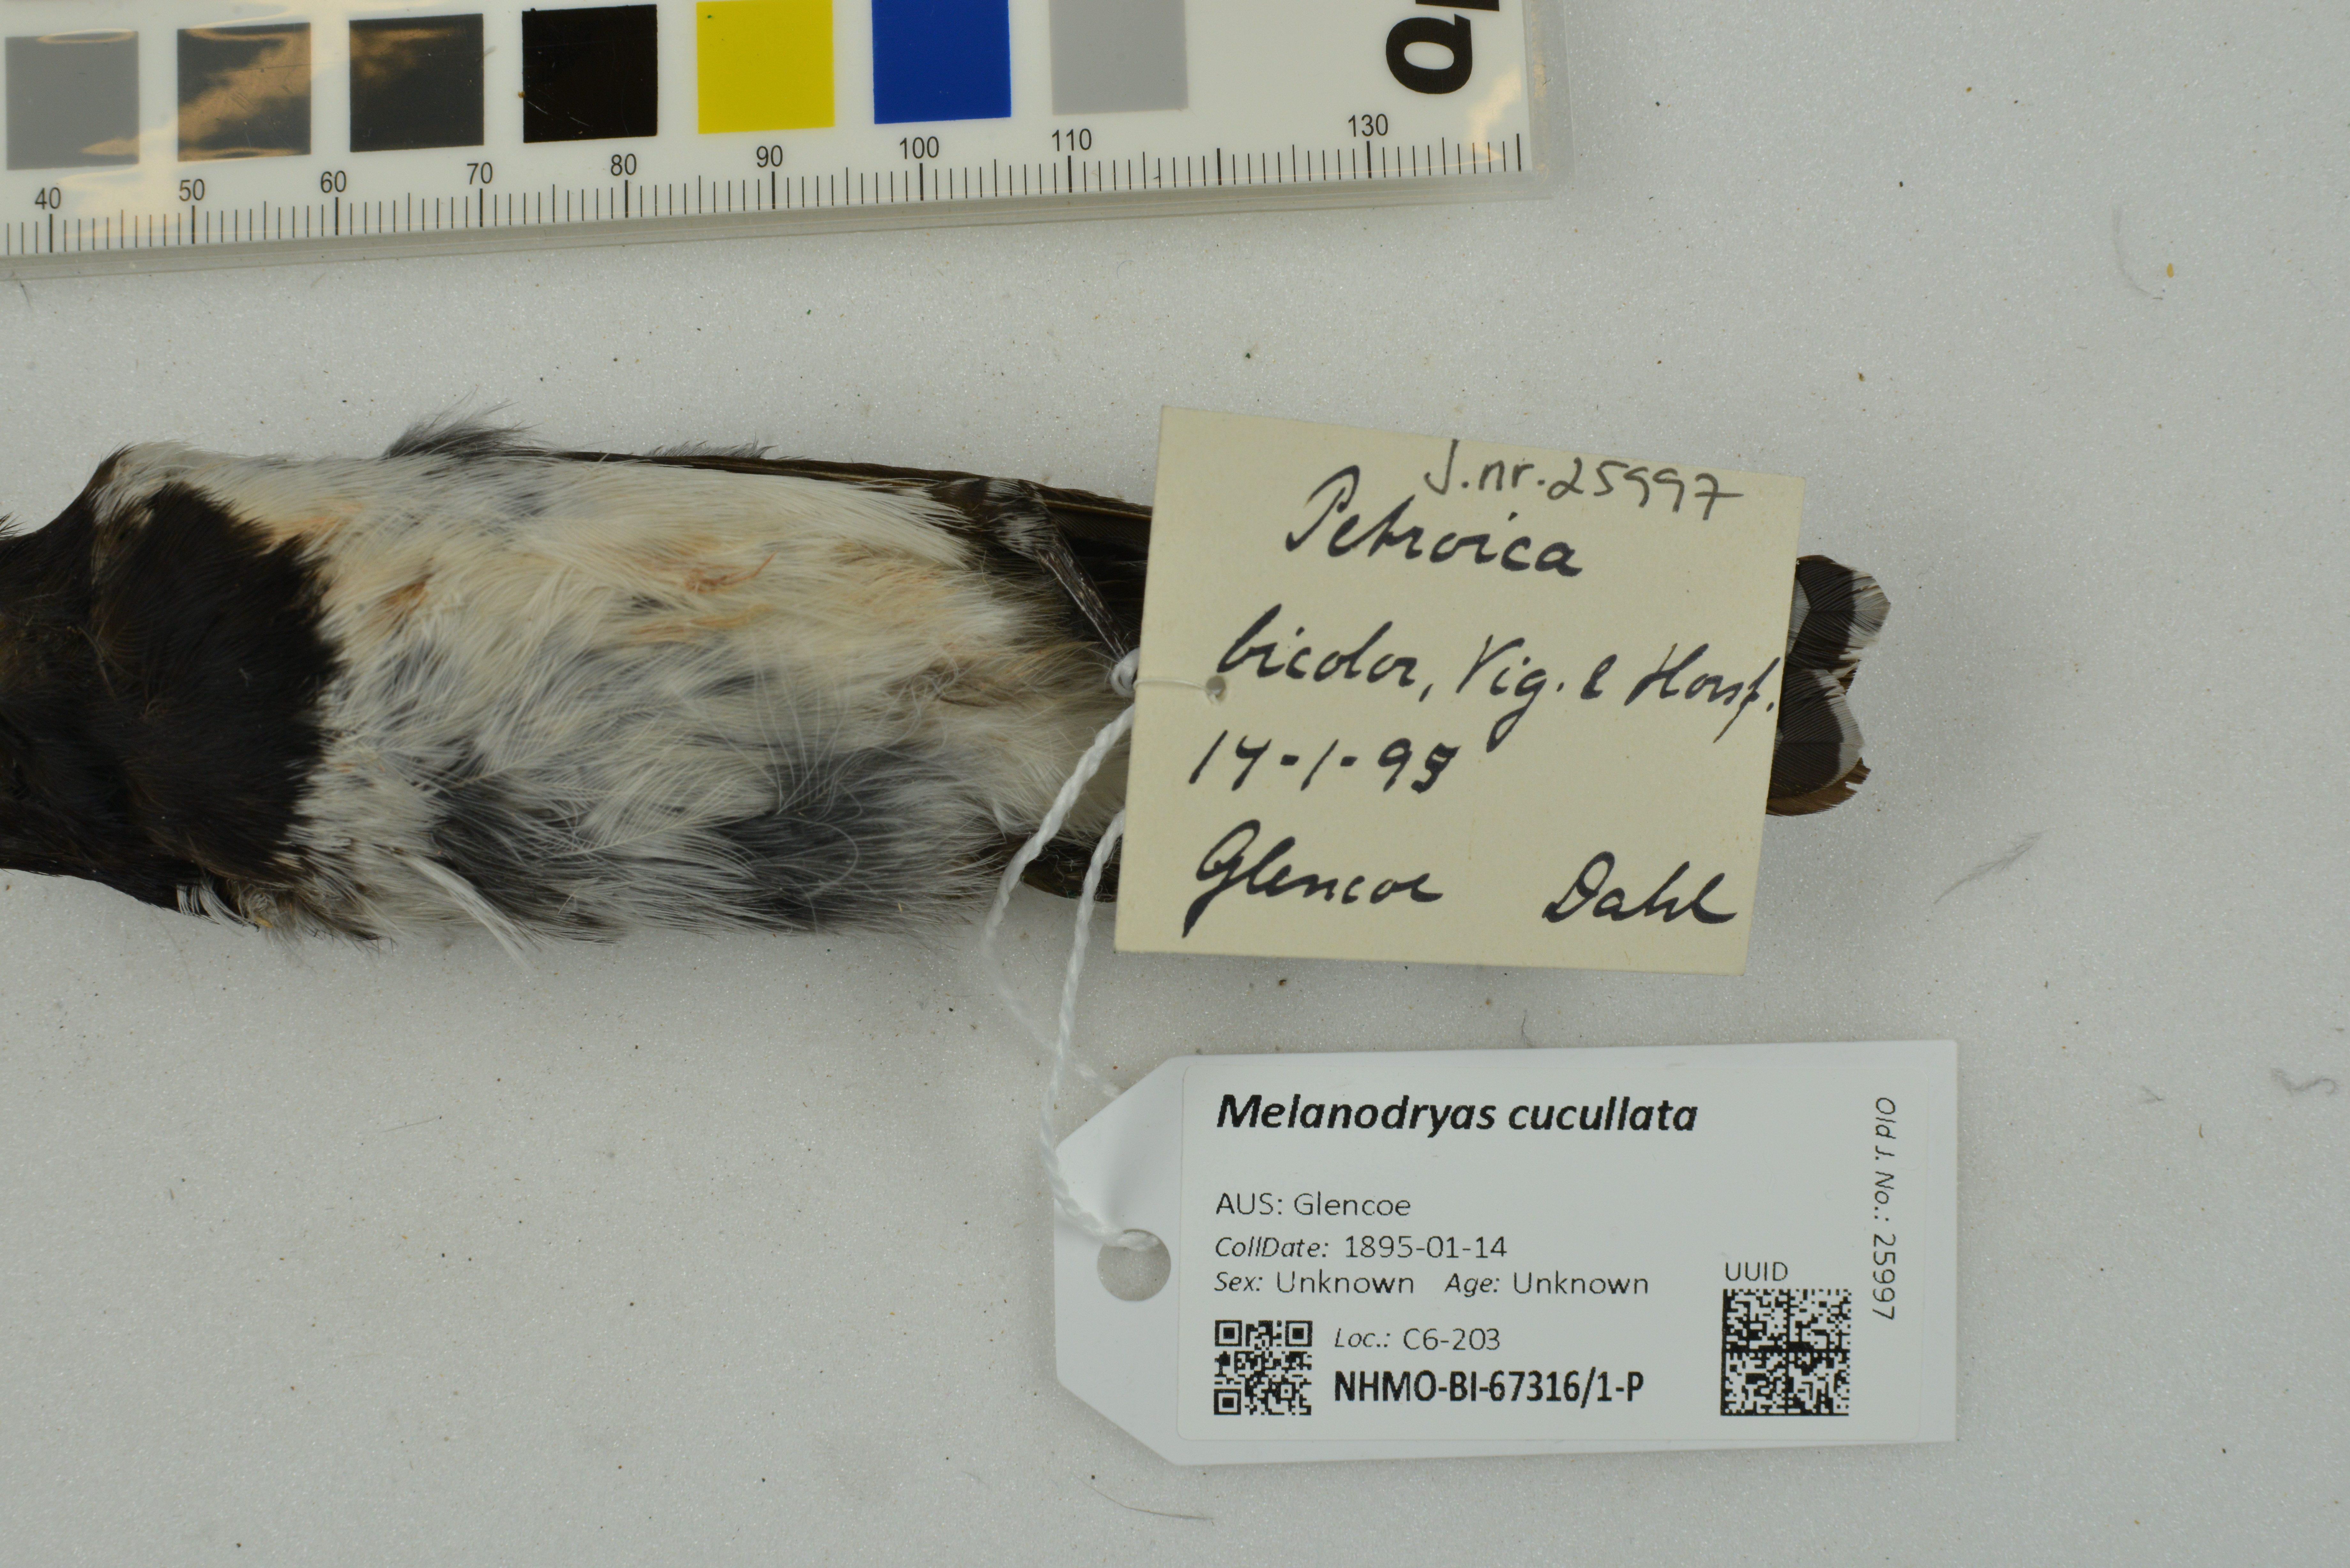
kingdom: Animalia
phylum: Chordata
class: Aves
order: Passeriformes
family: Petroicidae
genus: Melanodryas
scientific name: Melanodryas cucullata
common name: Hooded robin
